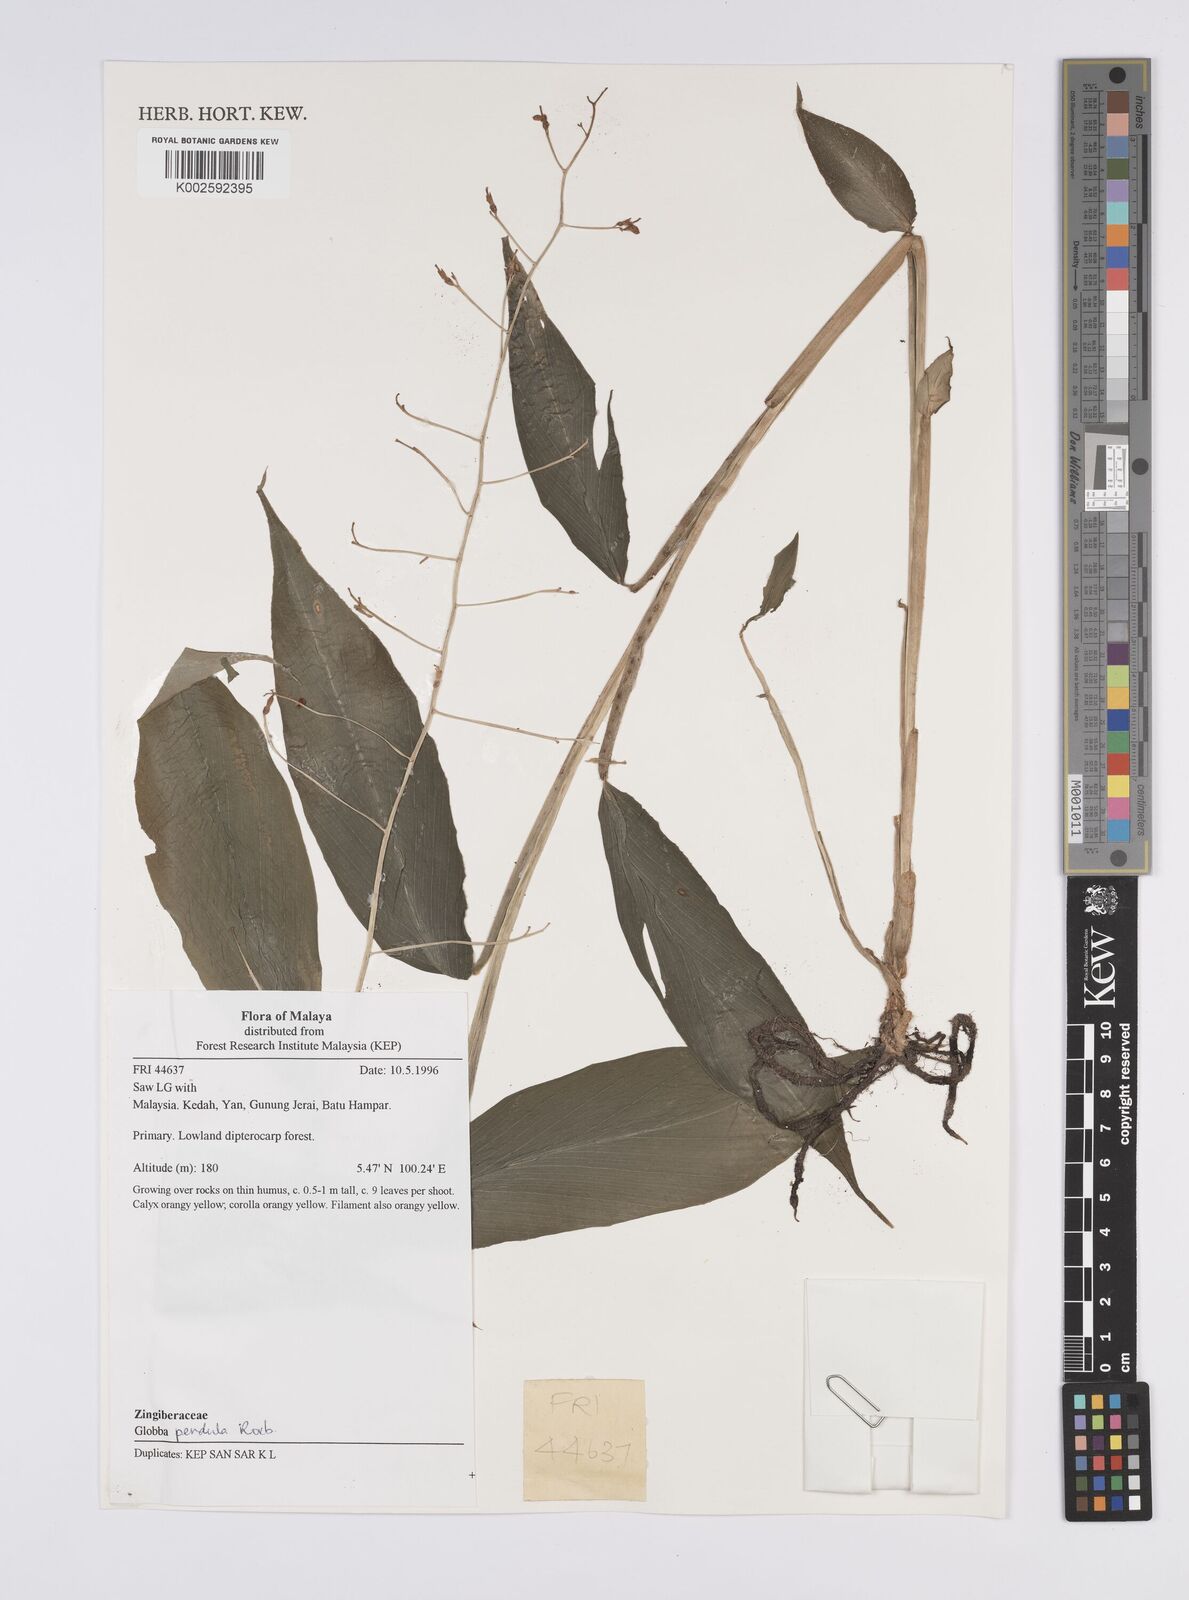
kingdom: Plantae
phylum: Tracheophyta
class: Liliopsida
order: Zingiberales
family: Zingiberaceae
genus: Globba
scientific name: Globba pendula
